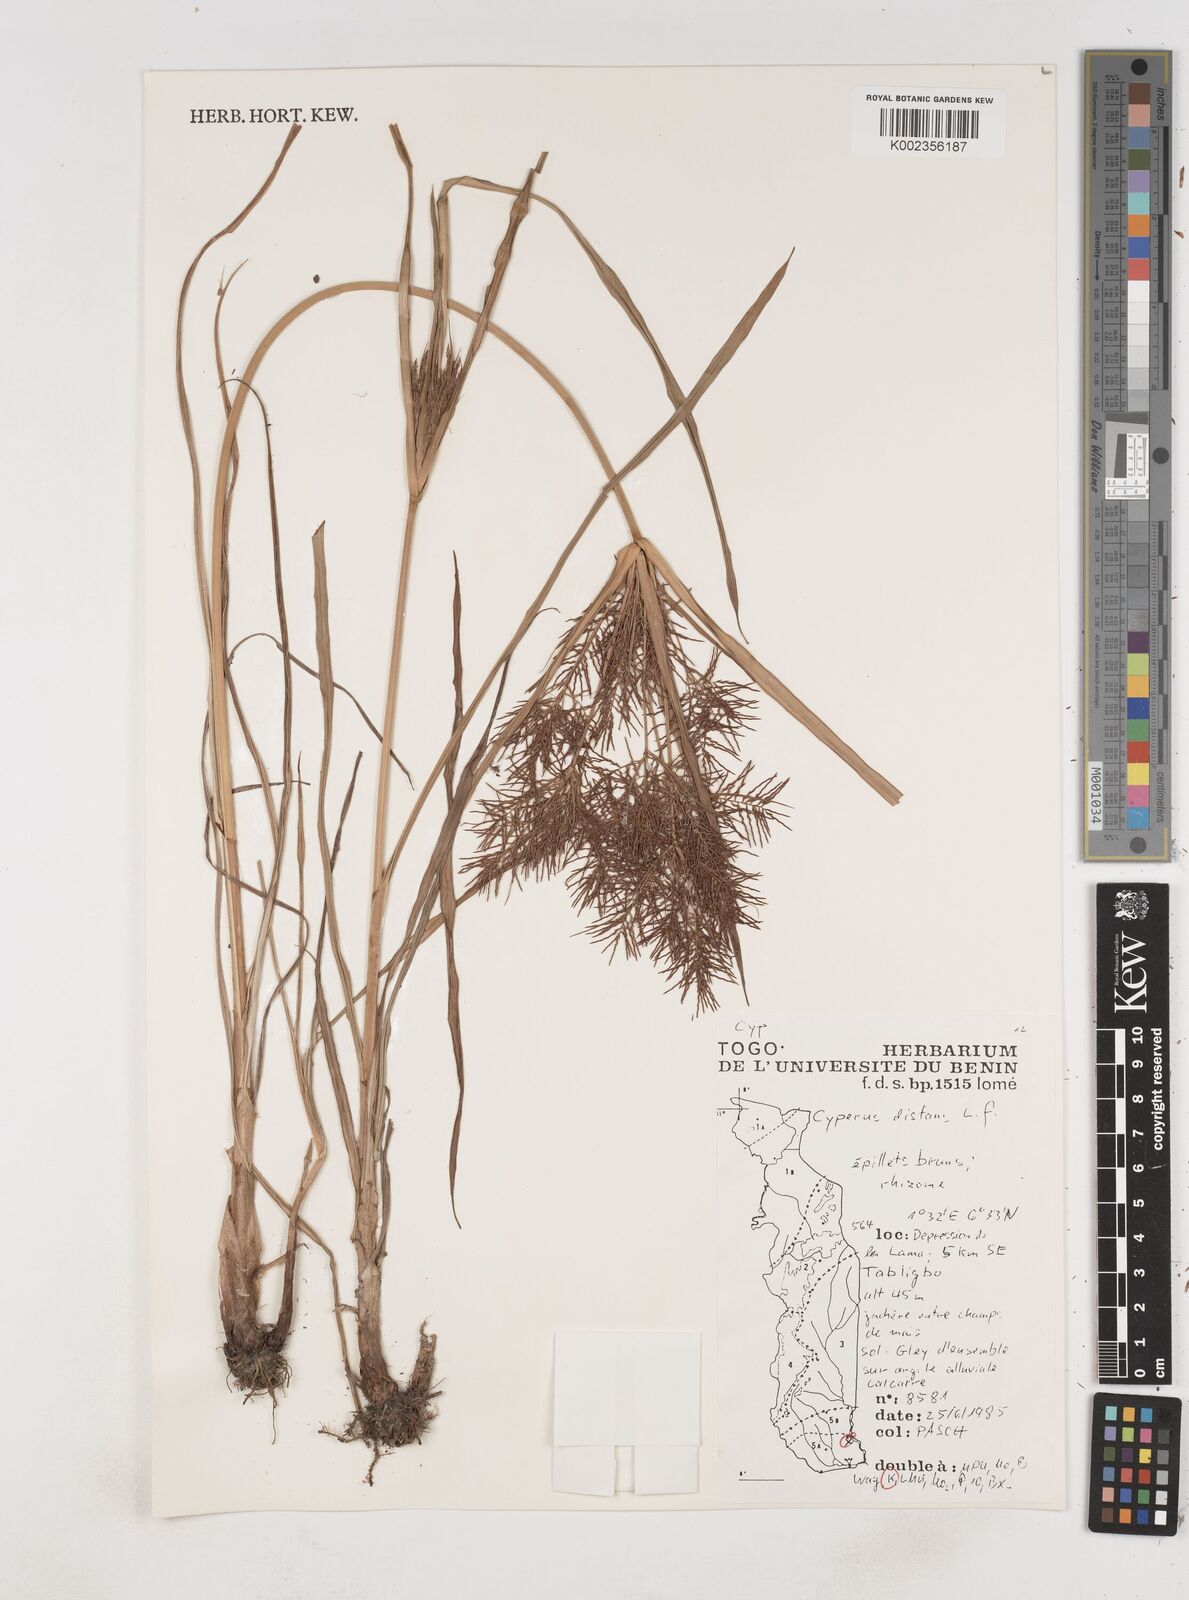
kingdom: Plantae
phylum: Tracheophyta
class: Liliopsida
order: Poales
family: Cyperaceae
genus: Cyperus
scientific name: Cyperus distans
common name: Slender cyperus
